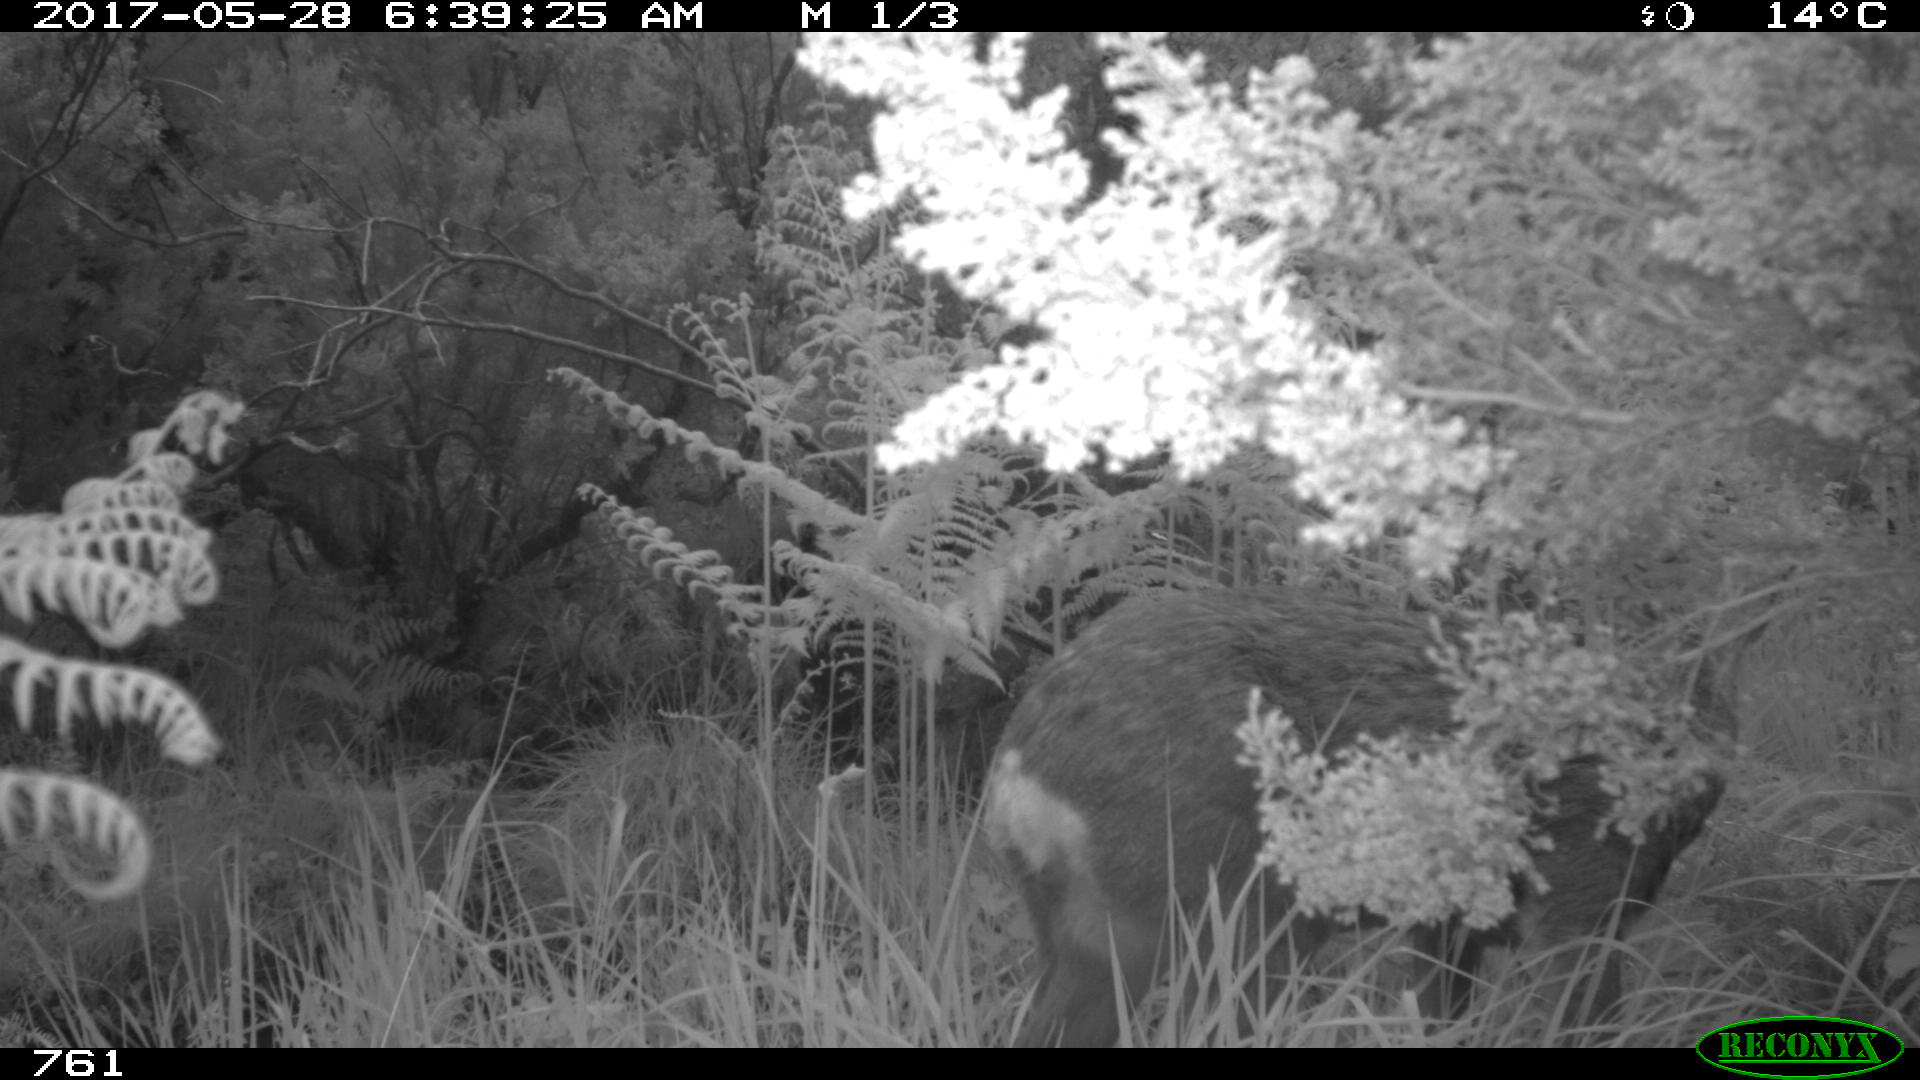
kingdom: Animalia
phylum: Chordata
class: Mammalia
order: Artiodactyla
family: Cervidae
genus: Capreolus
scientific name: Capreolus capreolus
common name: Western roe deer
